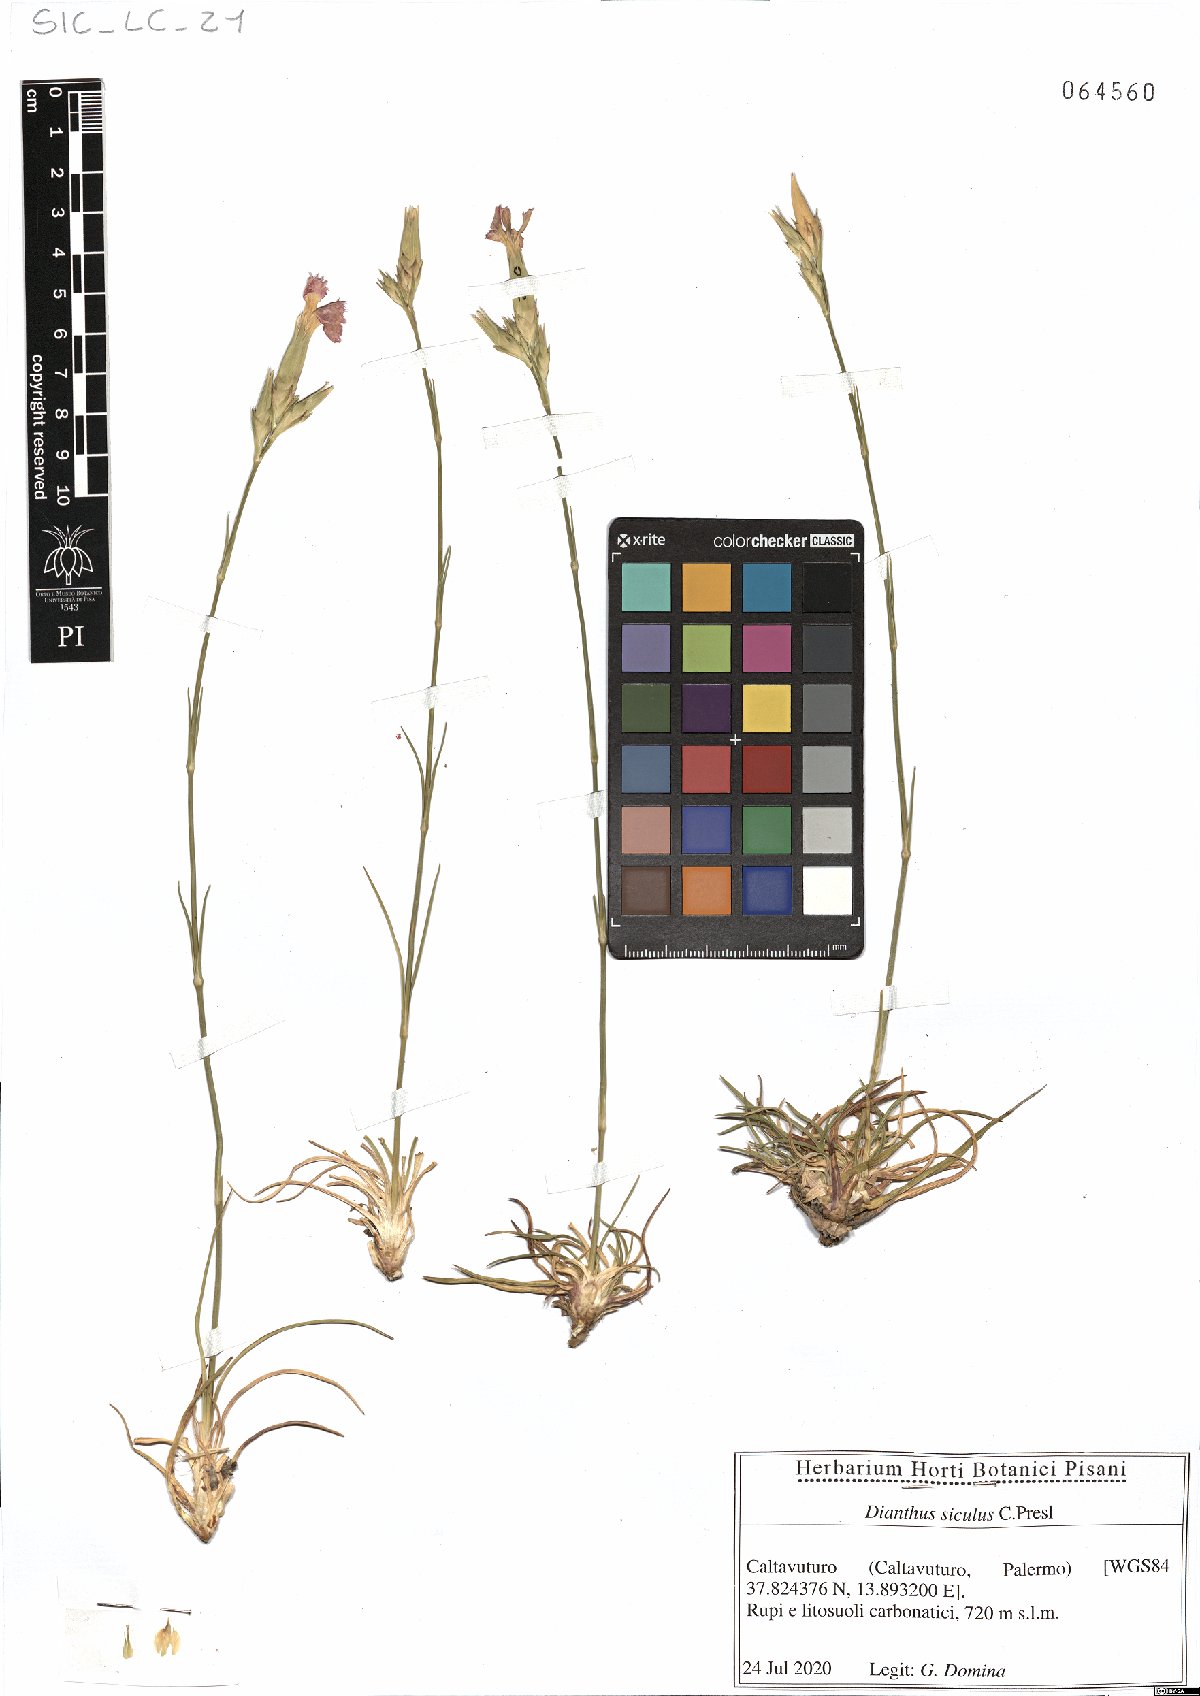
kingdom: Plantae
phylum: Tracheophyta
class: Magnoliopsida
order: Caryophyllales
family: Caryophyllaceae
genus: Dianthus
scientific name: Dianthus siculus
